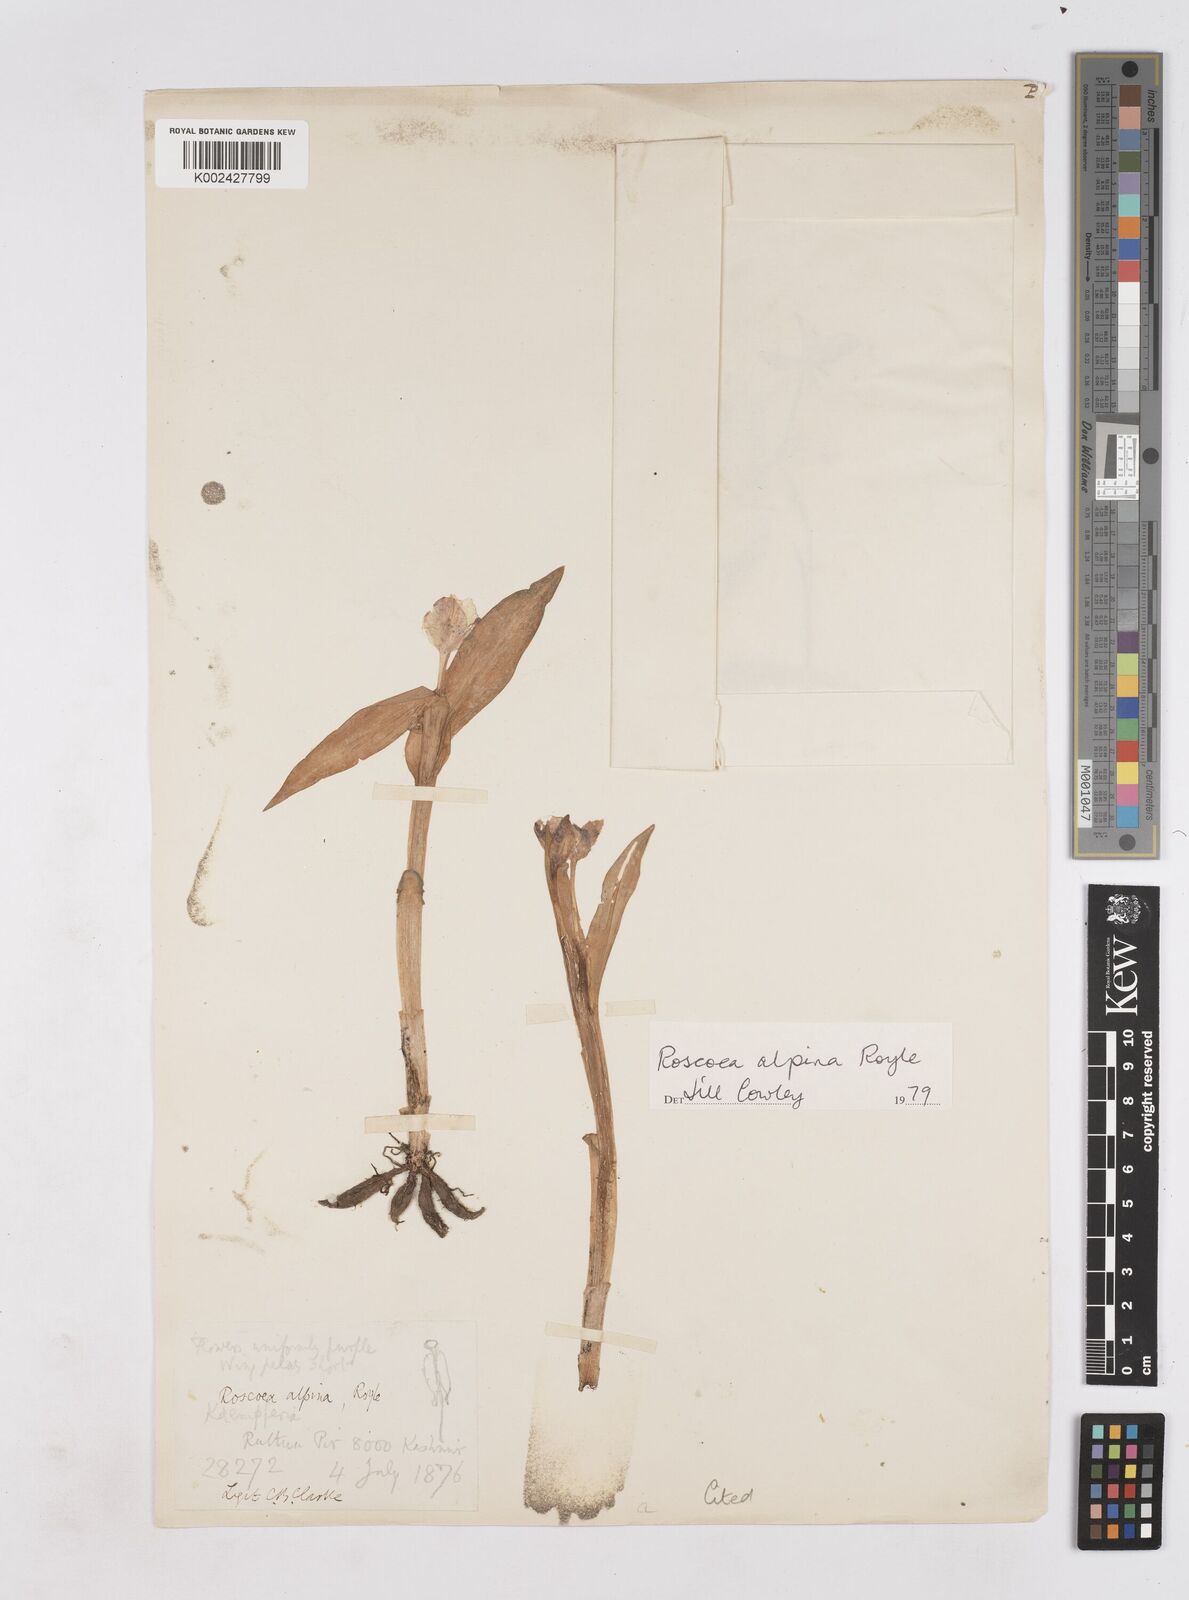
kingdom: Plantae
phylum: Tracheophyta
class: Liliopsida
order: Zingiberales
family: Zingiberaceae
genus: Roscoea
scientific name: Roscoea alpina
